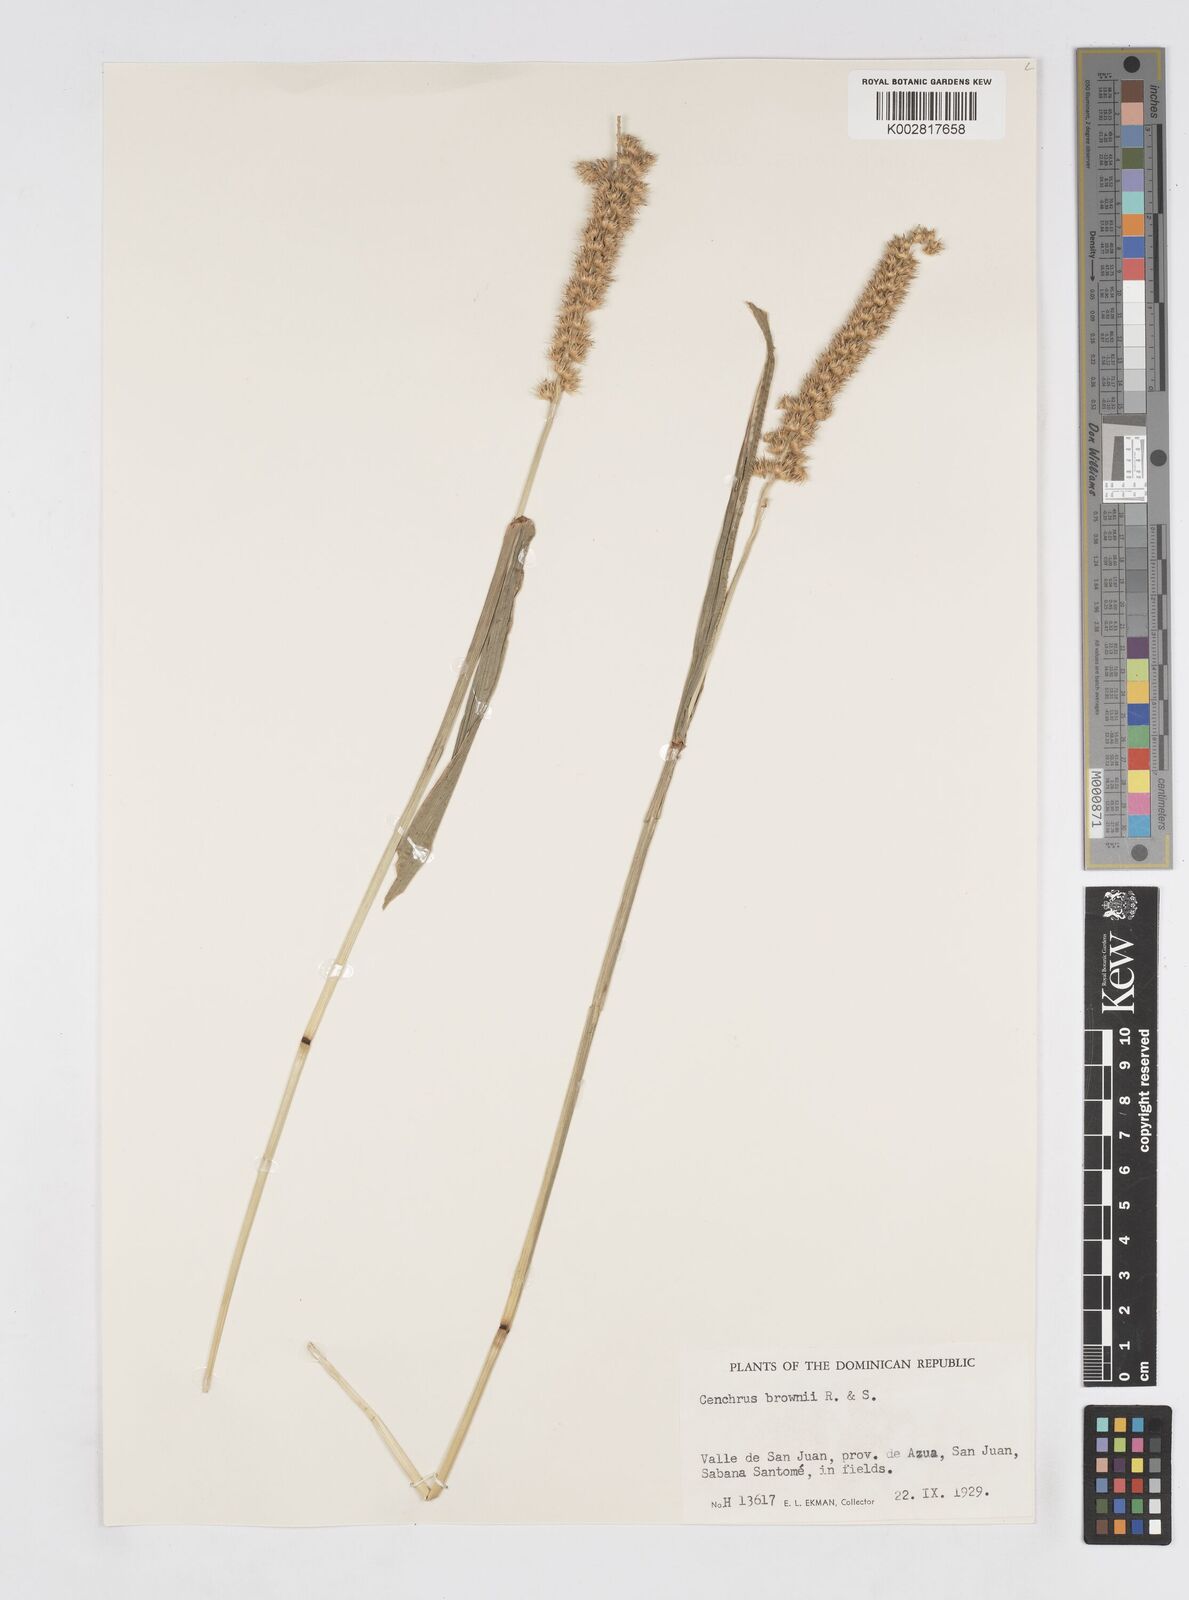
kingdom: Plantae
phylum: Tracheophyta
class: Liliopsida
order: Poales
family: Poaceae
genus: Cenchrus
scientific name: Cenchrus brownii
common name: Slim-bristle sandbur
